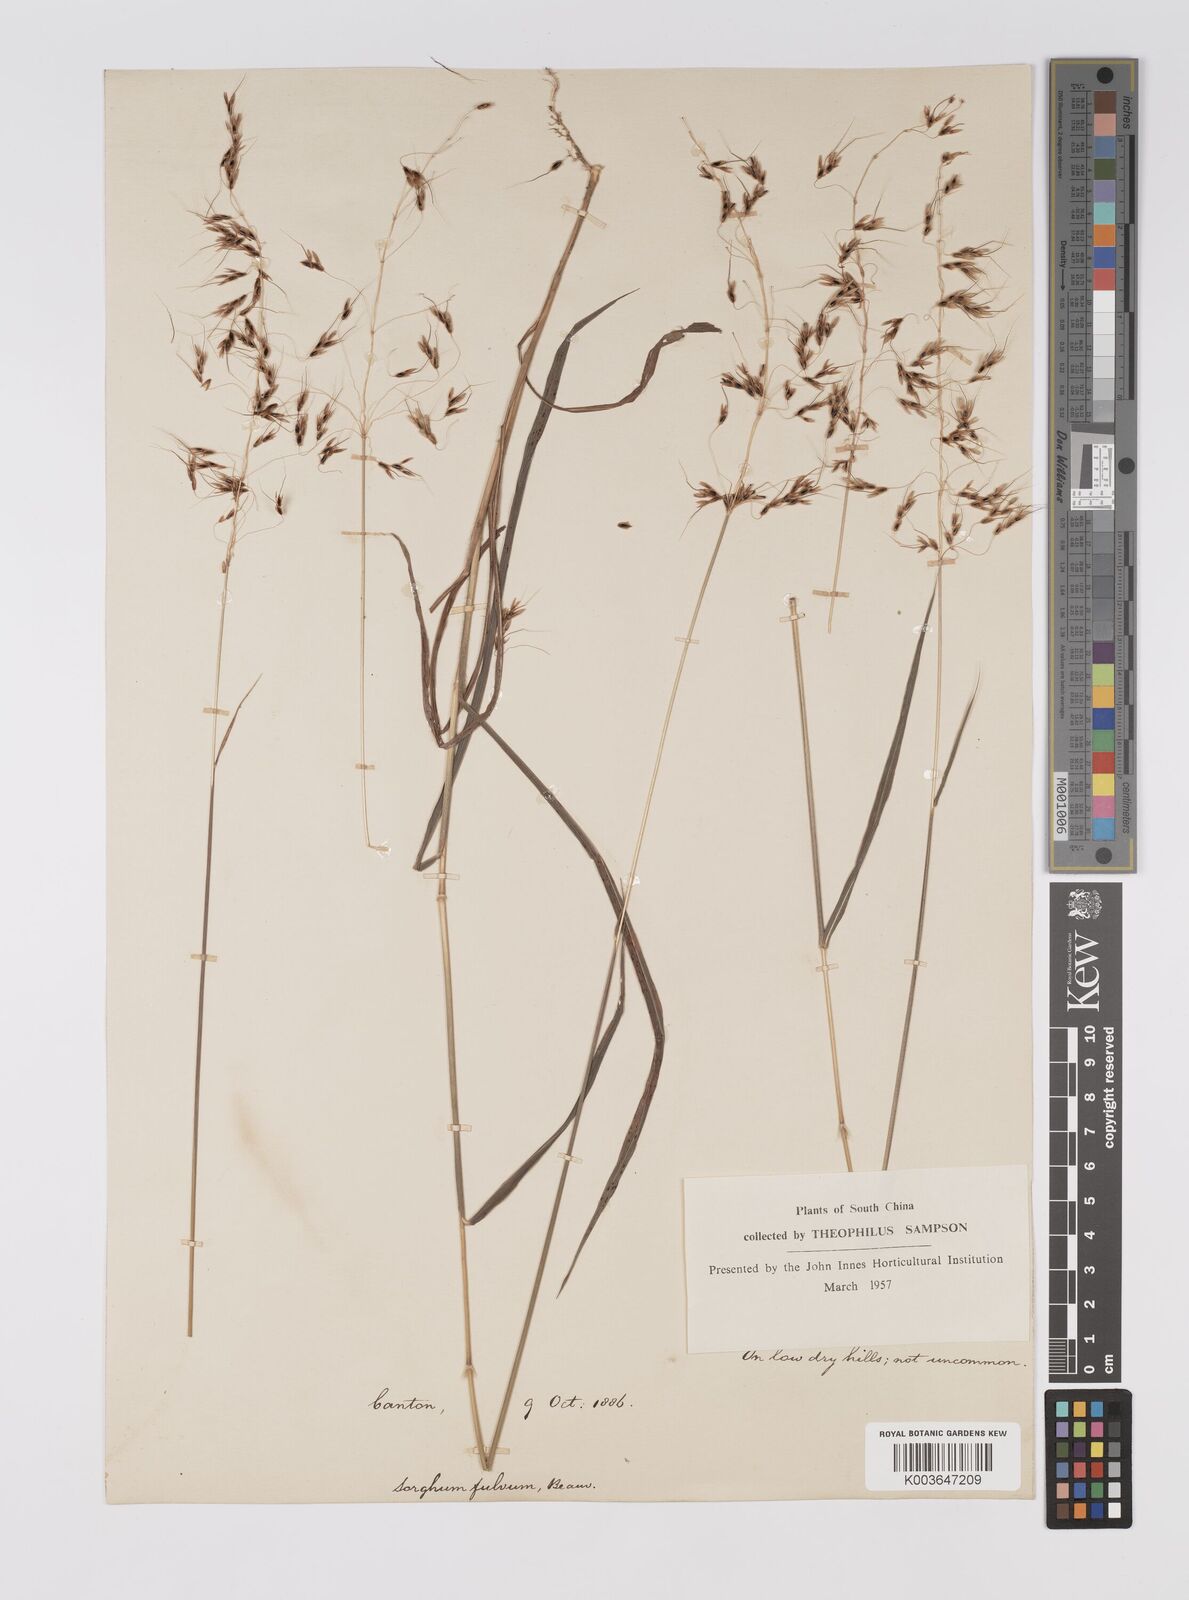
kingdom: Plantae
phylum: Tracheophyta
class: Liliopsida
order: Poales
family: Poaceae
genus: Sorghum
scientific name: Sorghum nitidum
